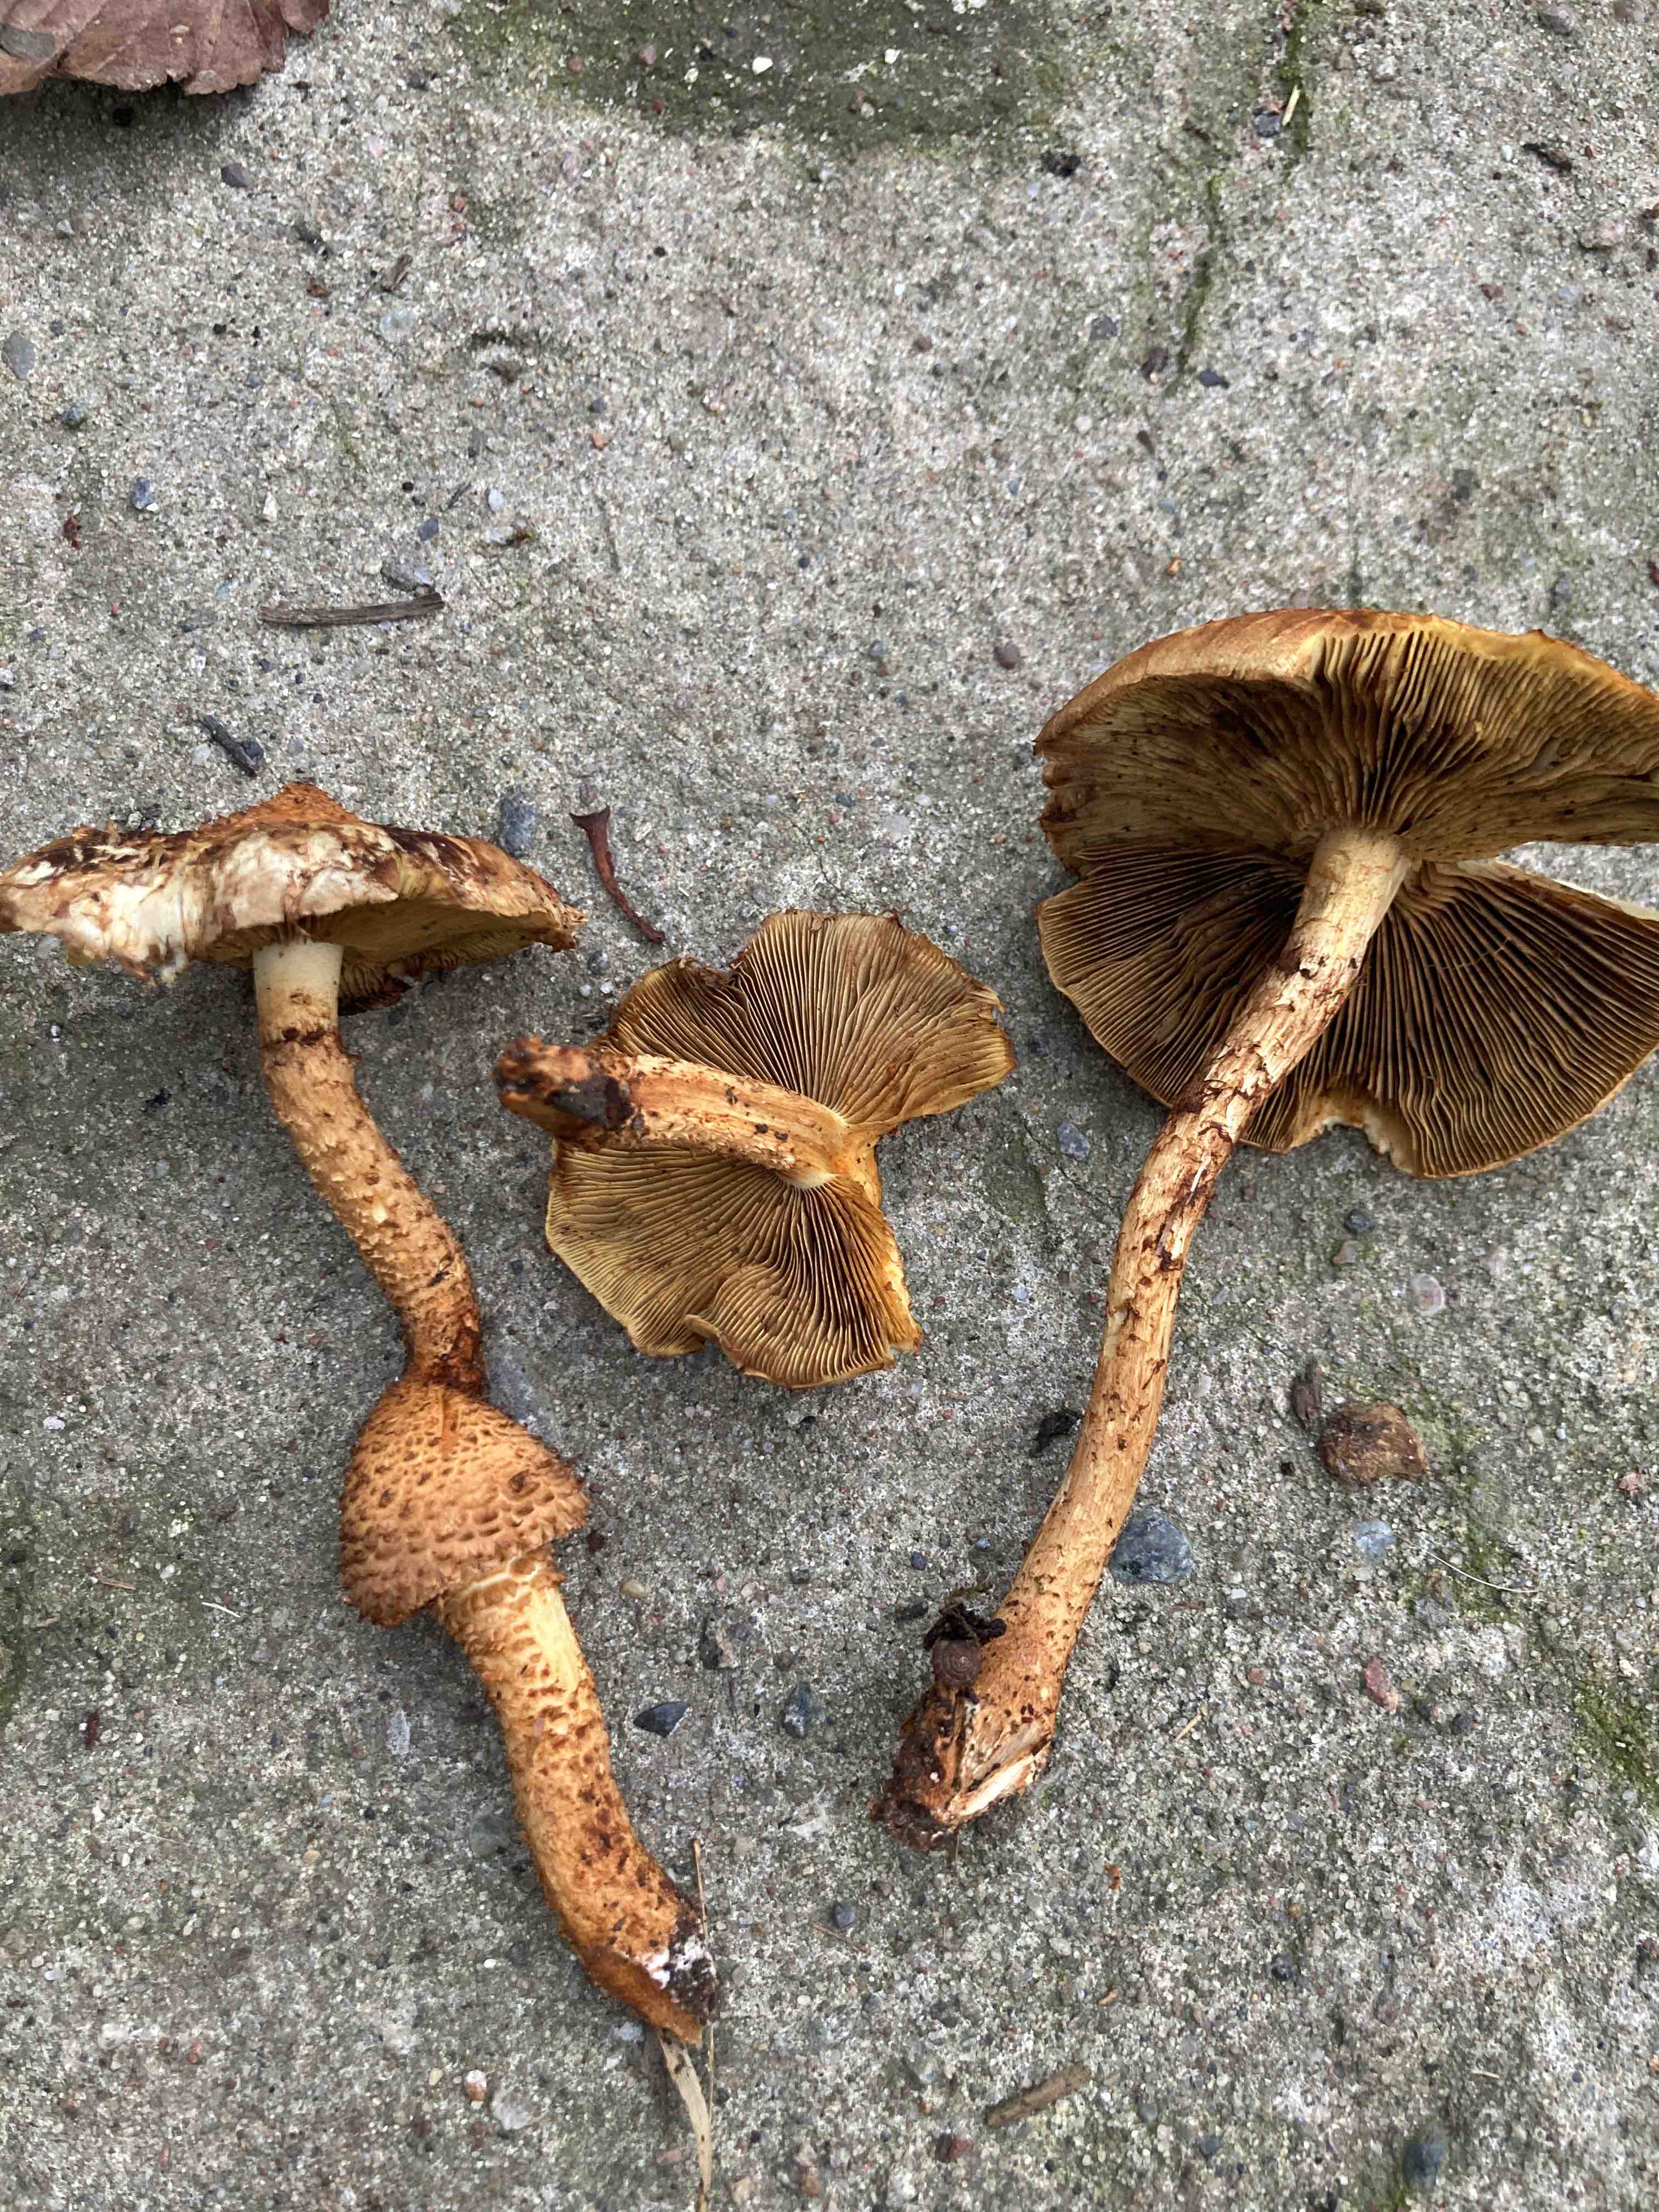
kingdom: Fungi
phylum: Basidiomycota
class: Agaricomycetes
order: Agaricales
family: Strophariaceae
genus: Pholiota
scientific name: Pholiota squarrosa
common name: krumskællet skælhat
